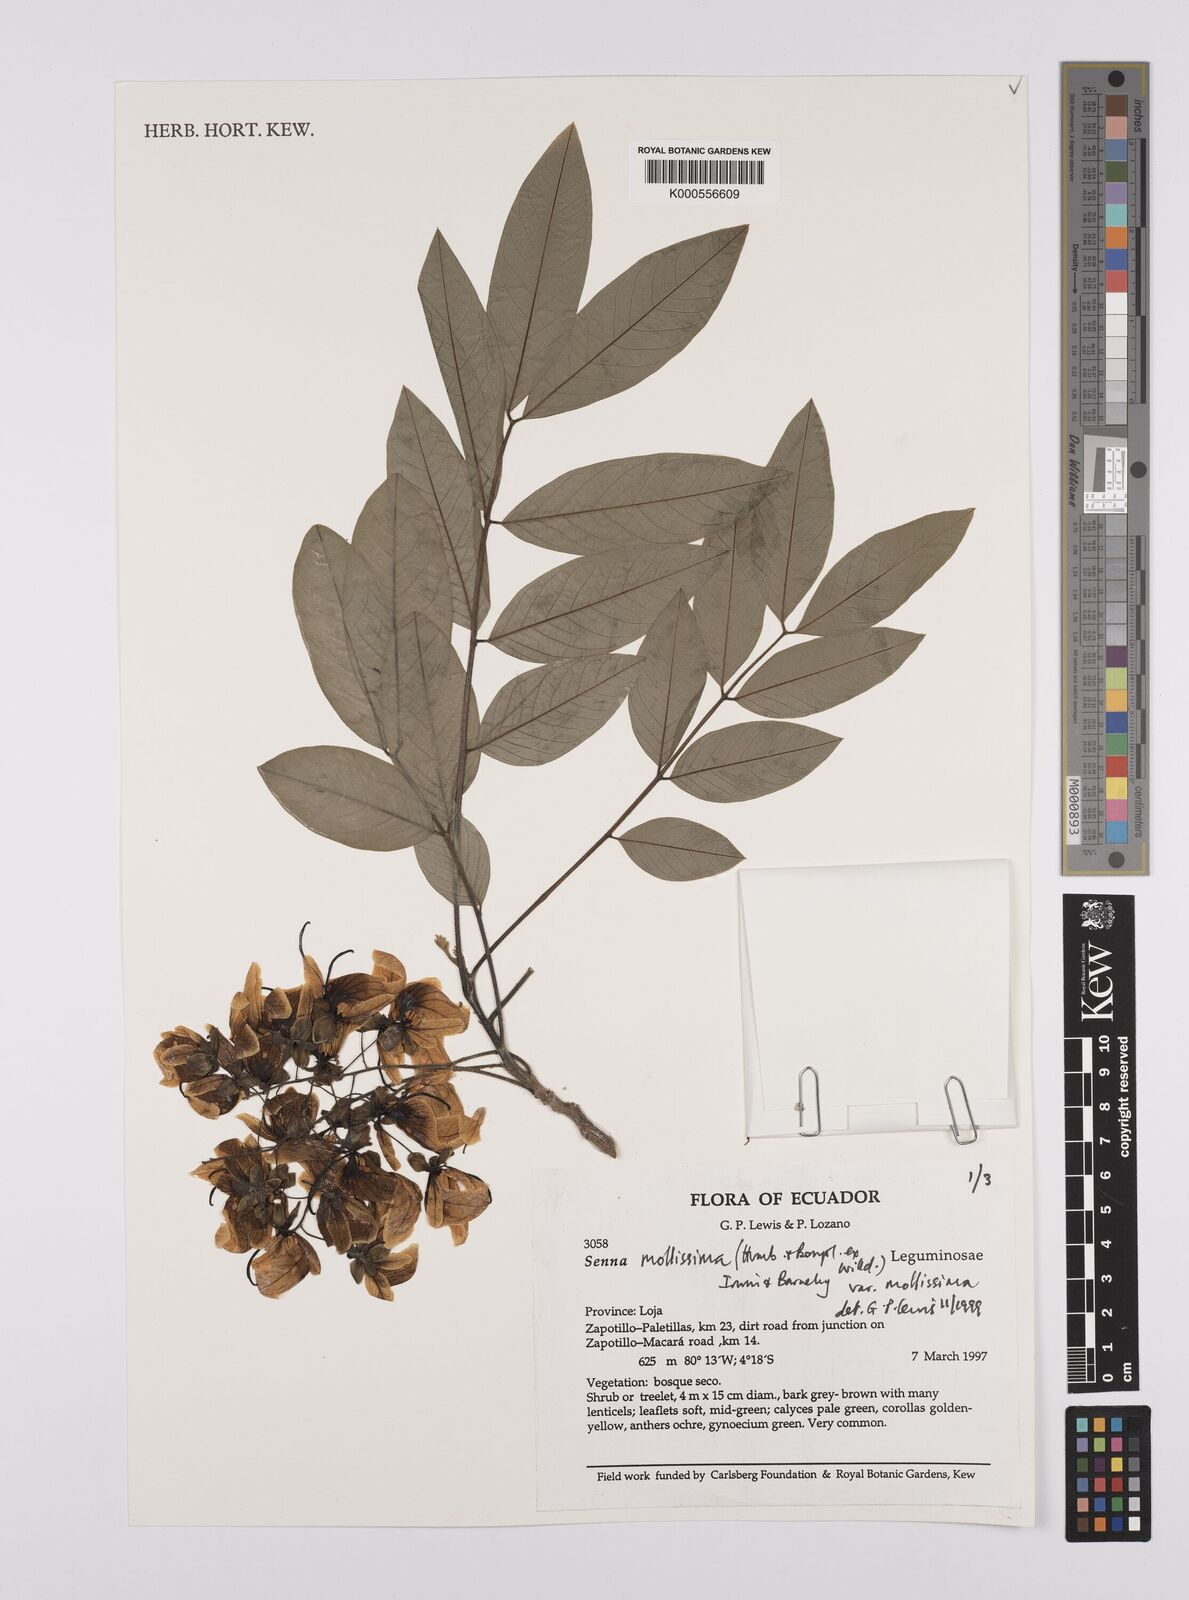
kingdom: Plantae
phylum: Tracheophyta
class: Magnoliopsida
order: Fabales
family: Fabaceae
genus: Senna
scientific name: Senna mollissima
